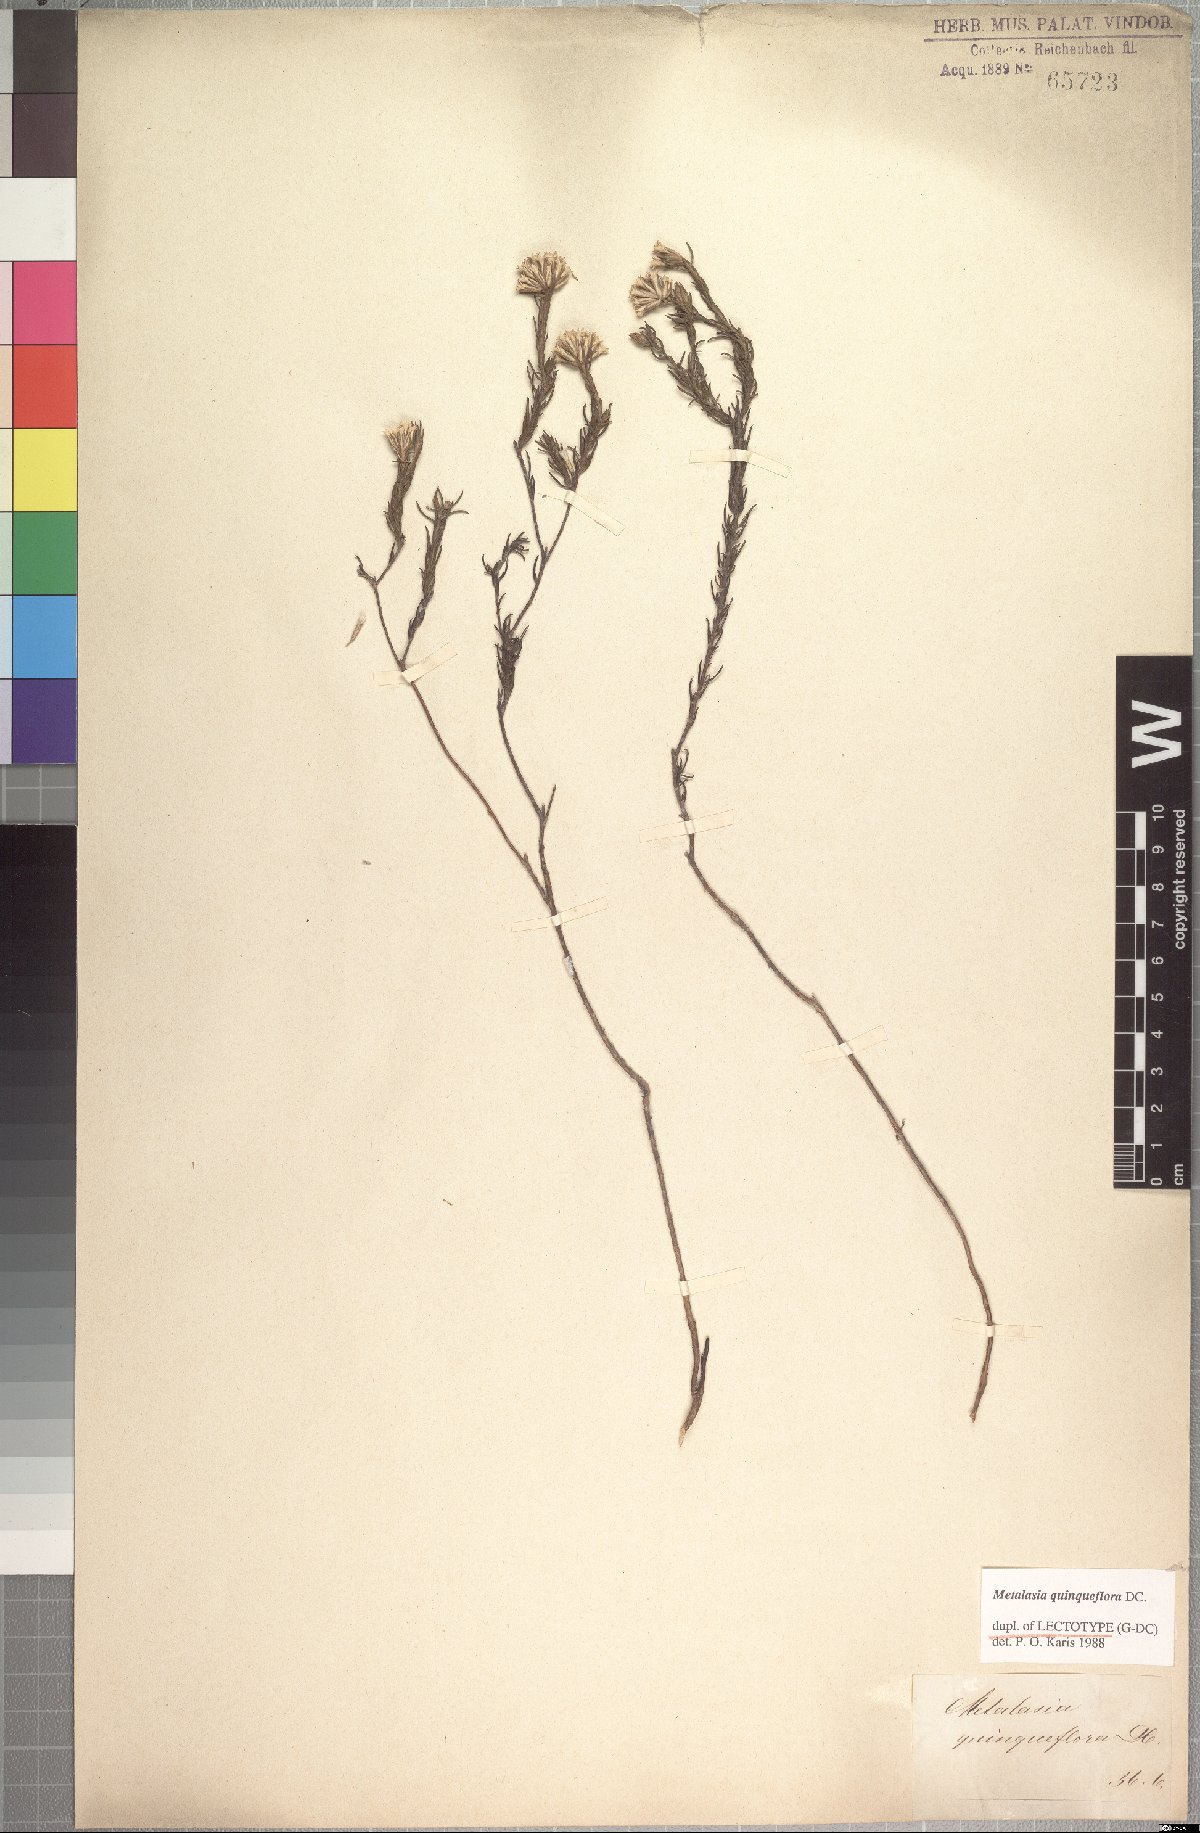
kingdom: Plantae
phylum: Tracheophyta
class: Magnoliopsida
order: Asterales
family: Asteraceae
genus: Metalasia
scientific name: Metalasia quinqueflora
